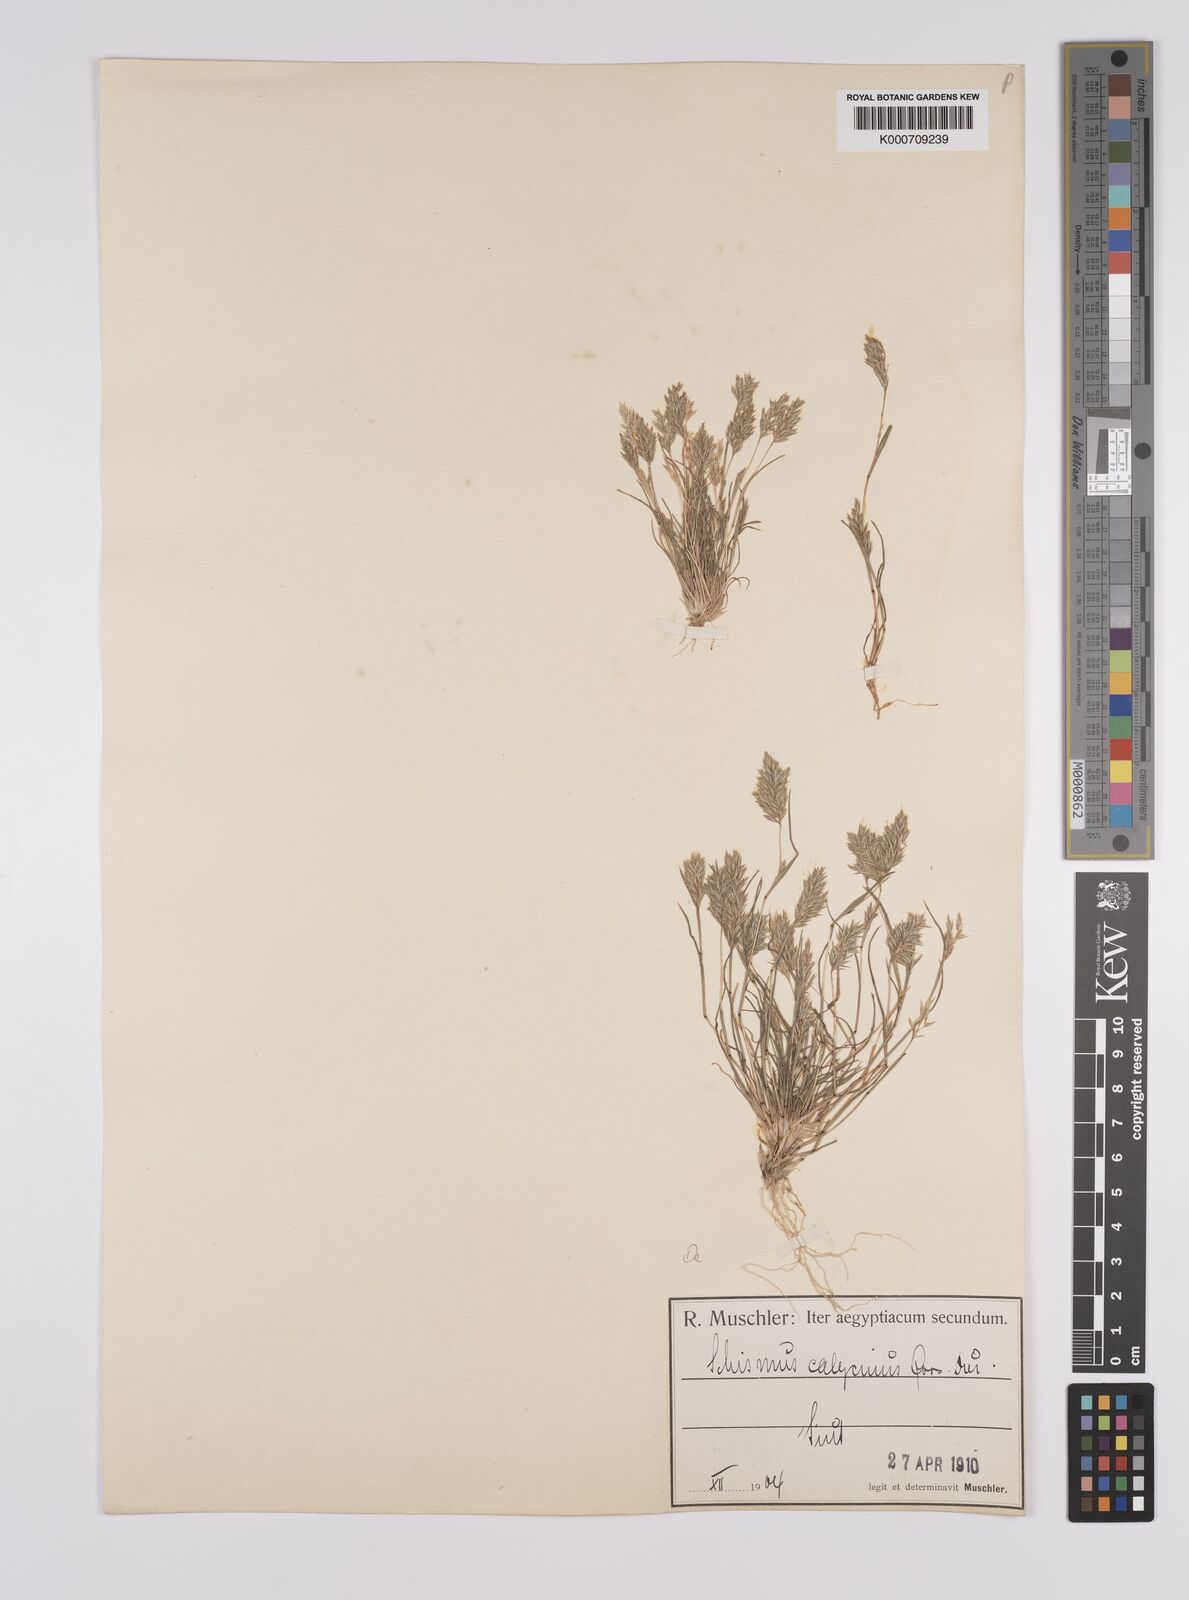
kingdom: Plantae
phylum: Tracheophyta
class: Liliopsida
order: Poales
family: Poaceae
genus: Schismus
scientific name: Schismus barbatus
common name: Kelch-grass
